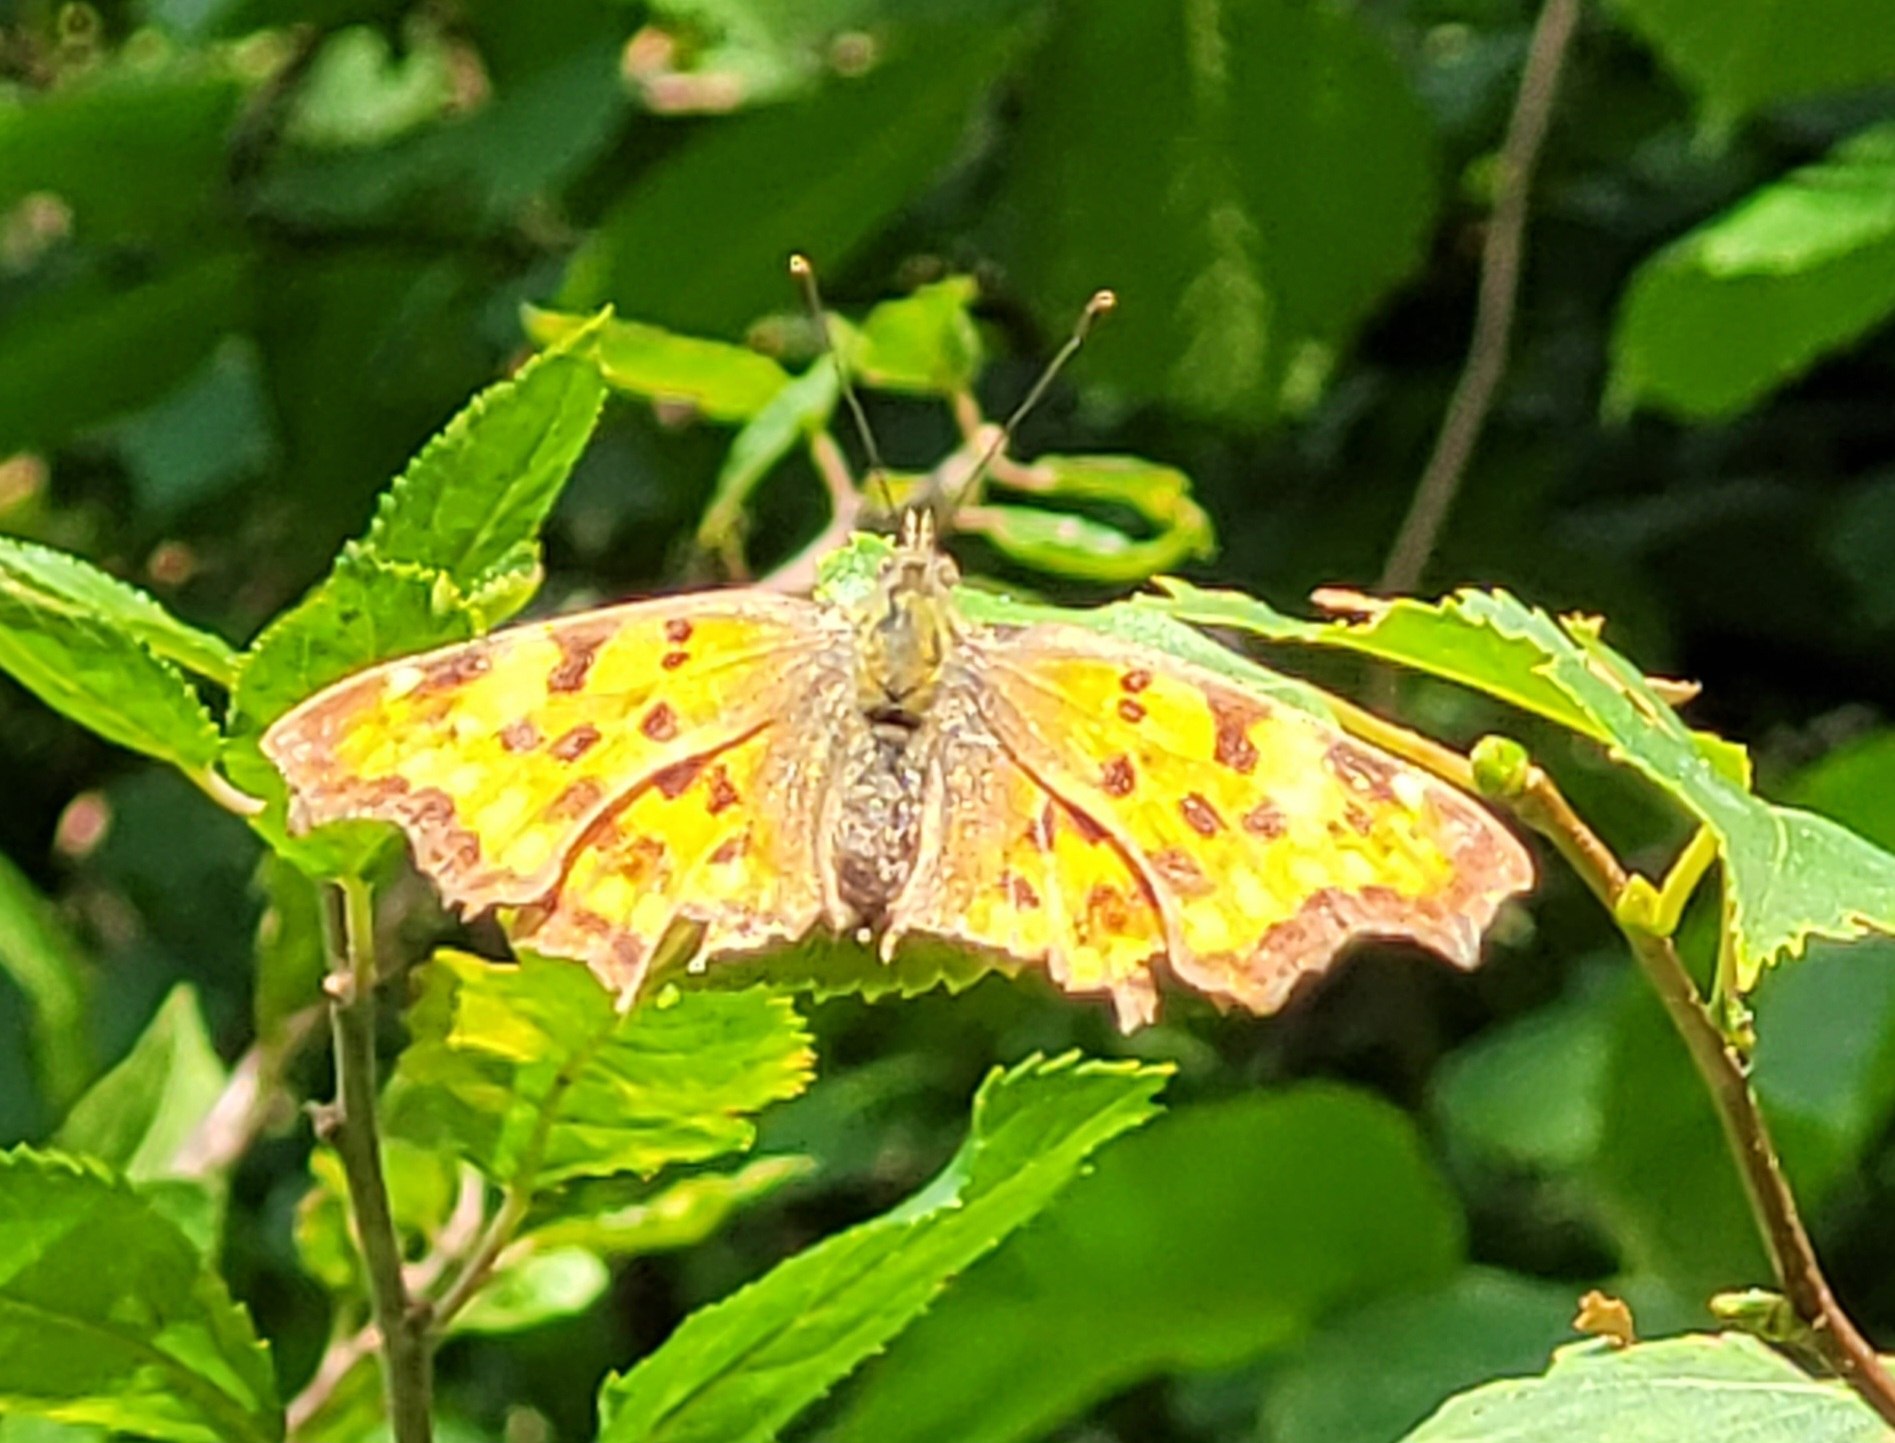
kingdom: Animalia
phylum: Arthropoda
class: Insecta
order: Lepidoptera
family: Nymphalidae
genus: Polygonia
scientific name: Polygonia c-album
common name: Det hvide C
